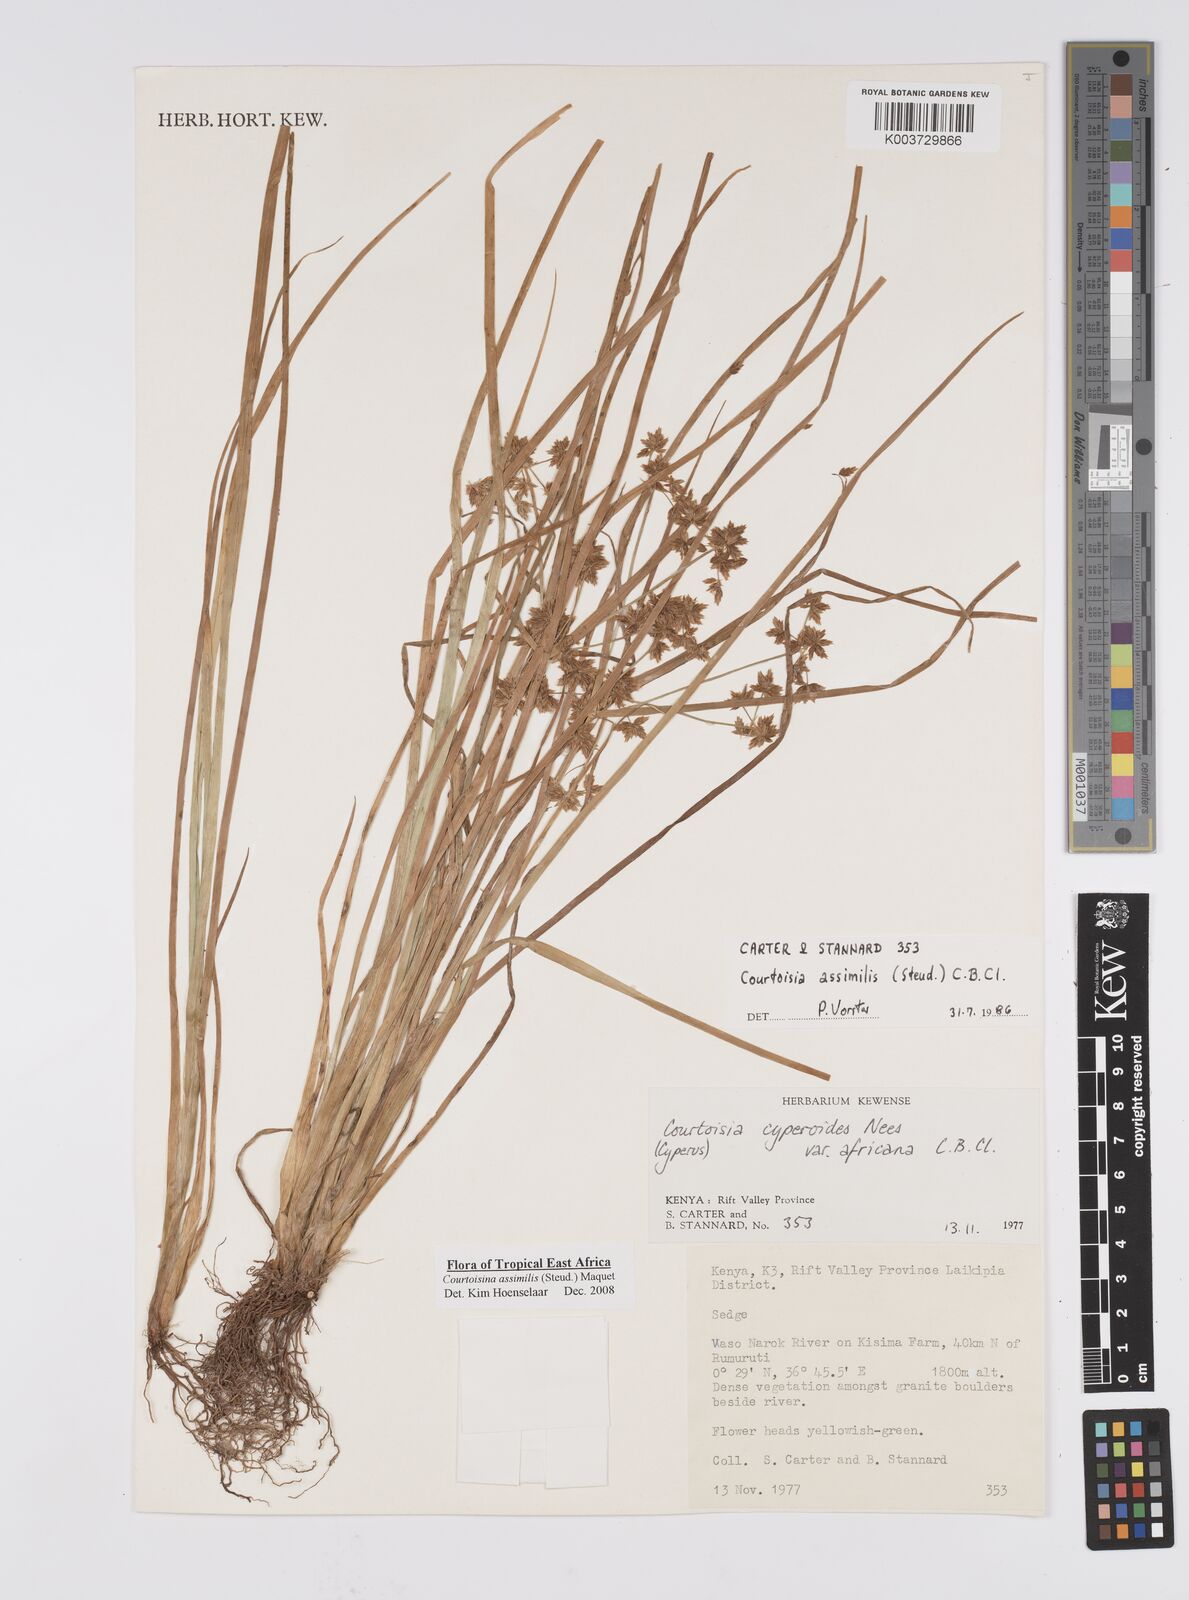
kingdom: Plantae
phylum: Tracheophyta
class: Liliopsida
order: Poales
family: Cyperaceae
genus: Cyperus
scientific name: Cyperus assimilis
